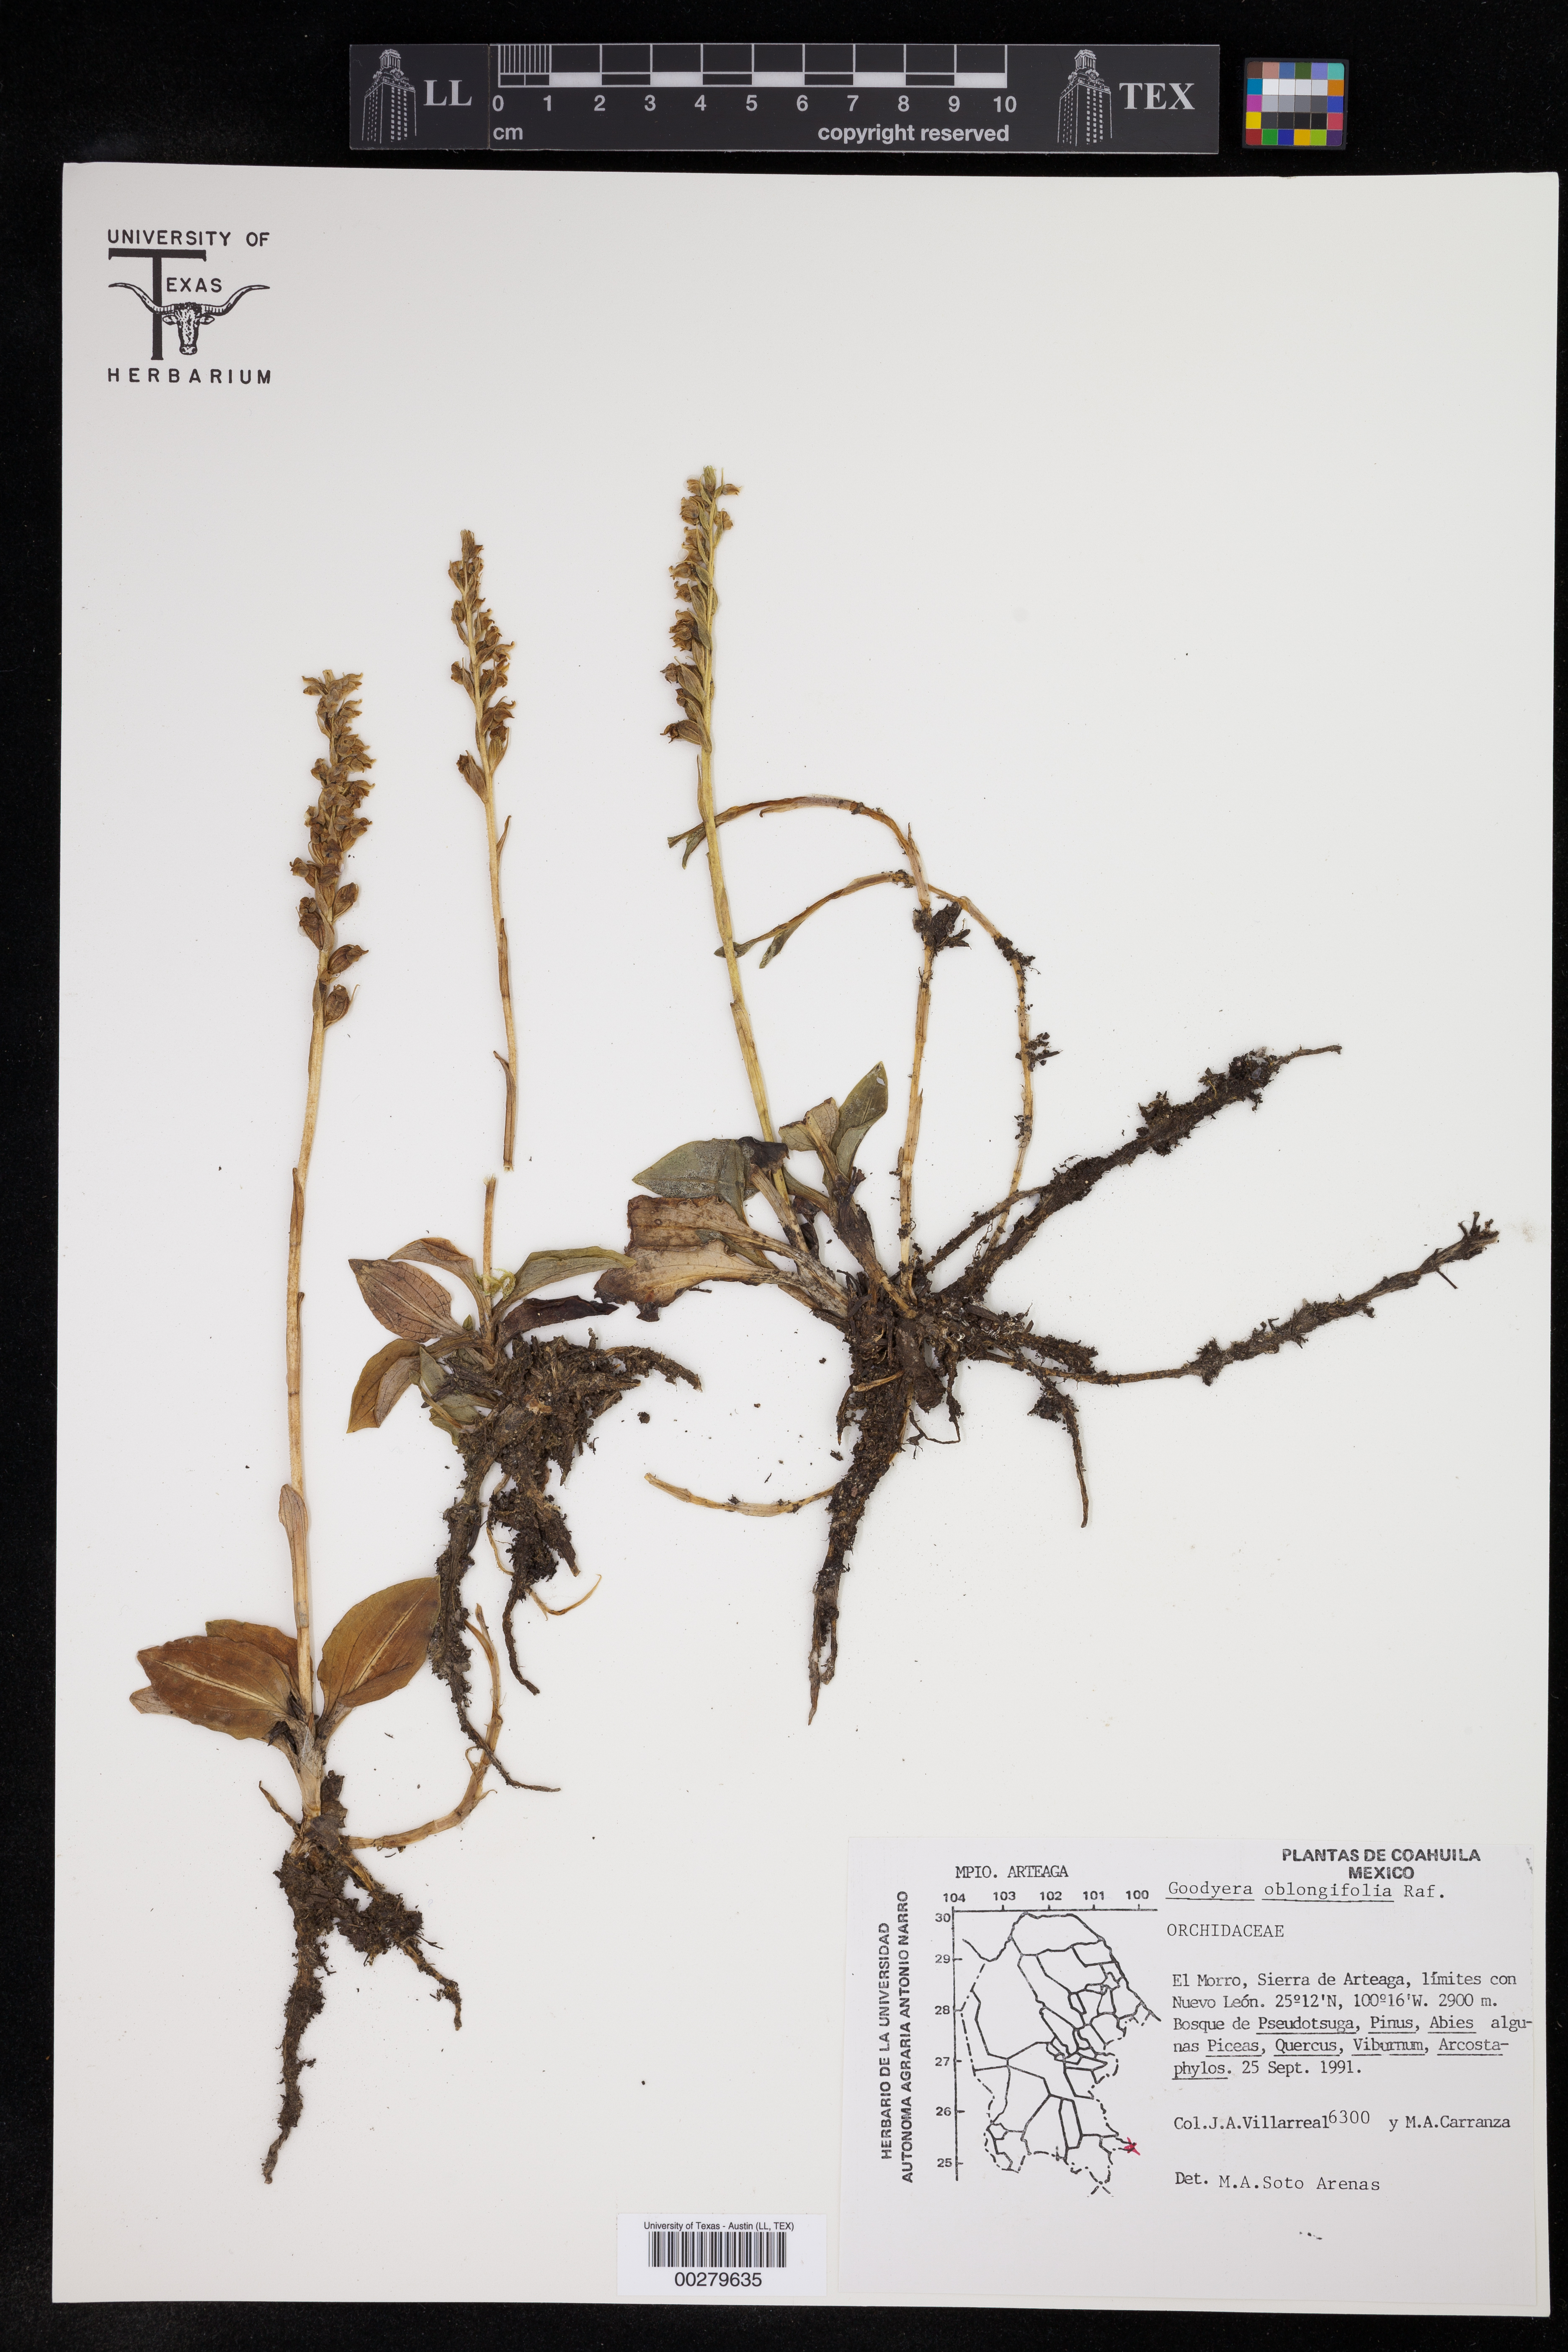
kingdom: Plantae
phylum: Tracheophyta
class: Liliopsida
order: Asparagales
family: Orchidaceae
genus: Goodyera
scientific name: Goodyera oblongifolia
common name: Giant rattlesnake-plantain
